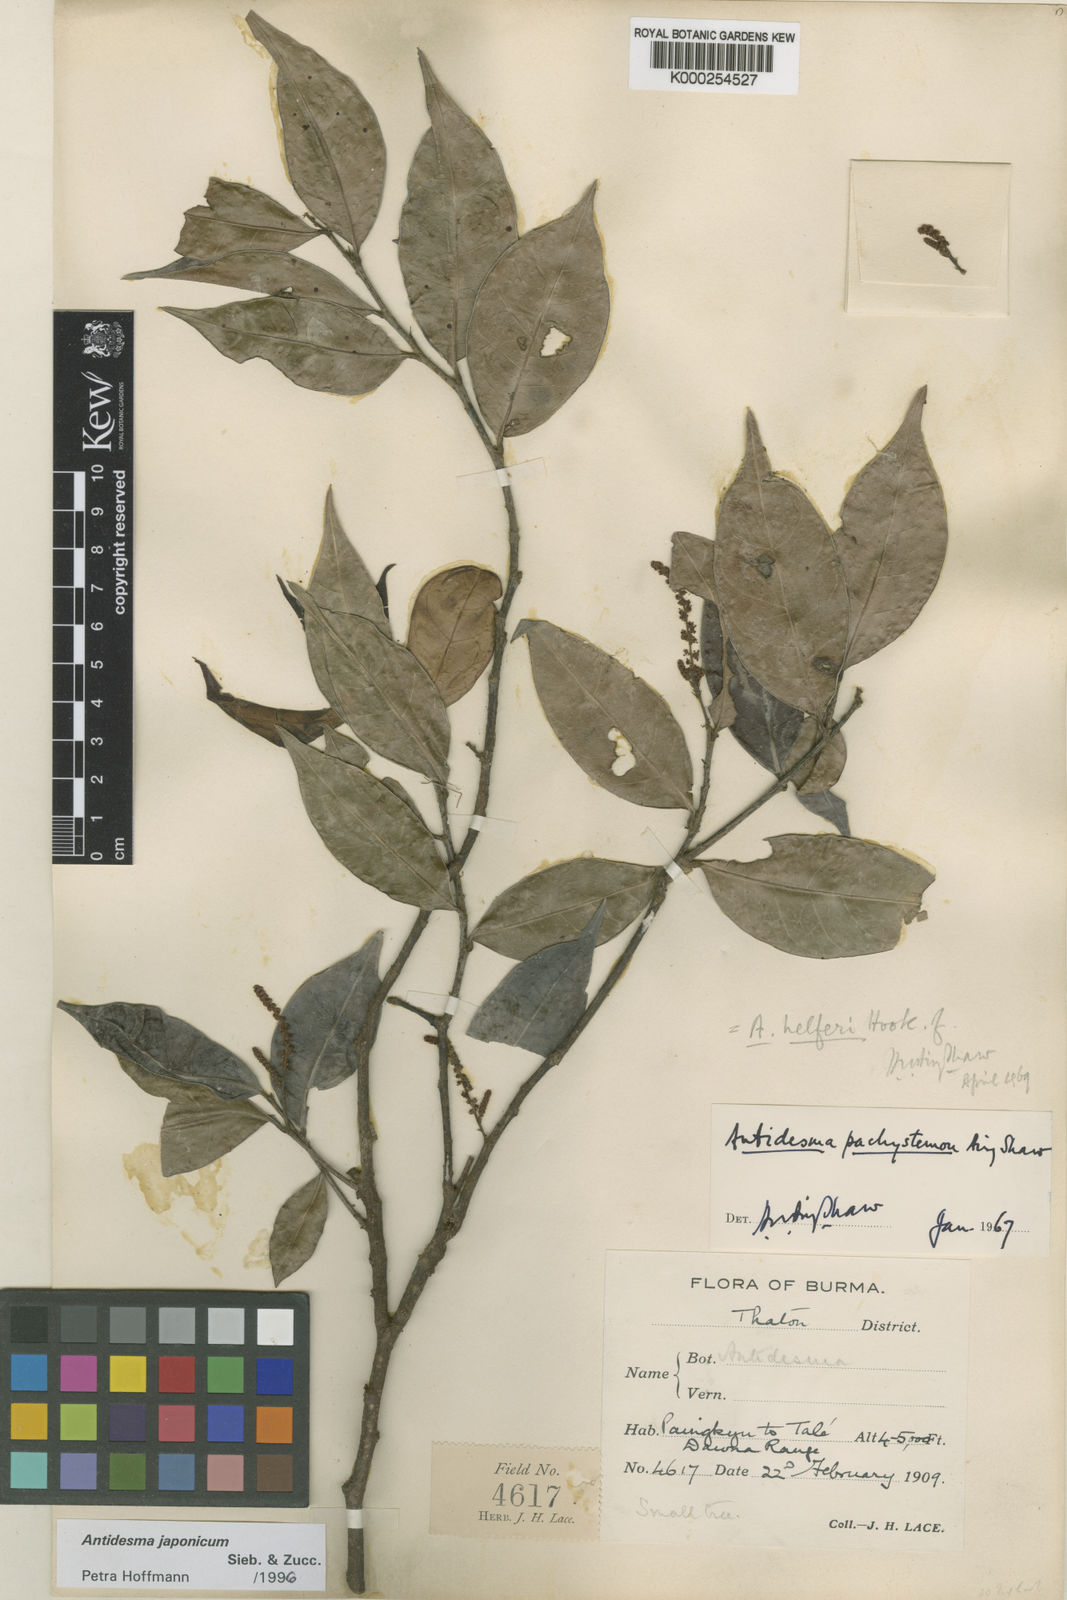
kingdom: Plantae
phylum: Tracheophyta
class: Magnoliopsida
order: Malpighiales
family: Phyllanthaceae
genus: Antidesma
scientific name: Antidesma japonicum
